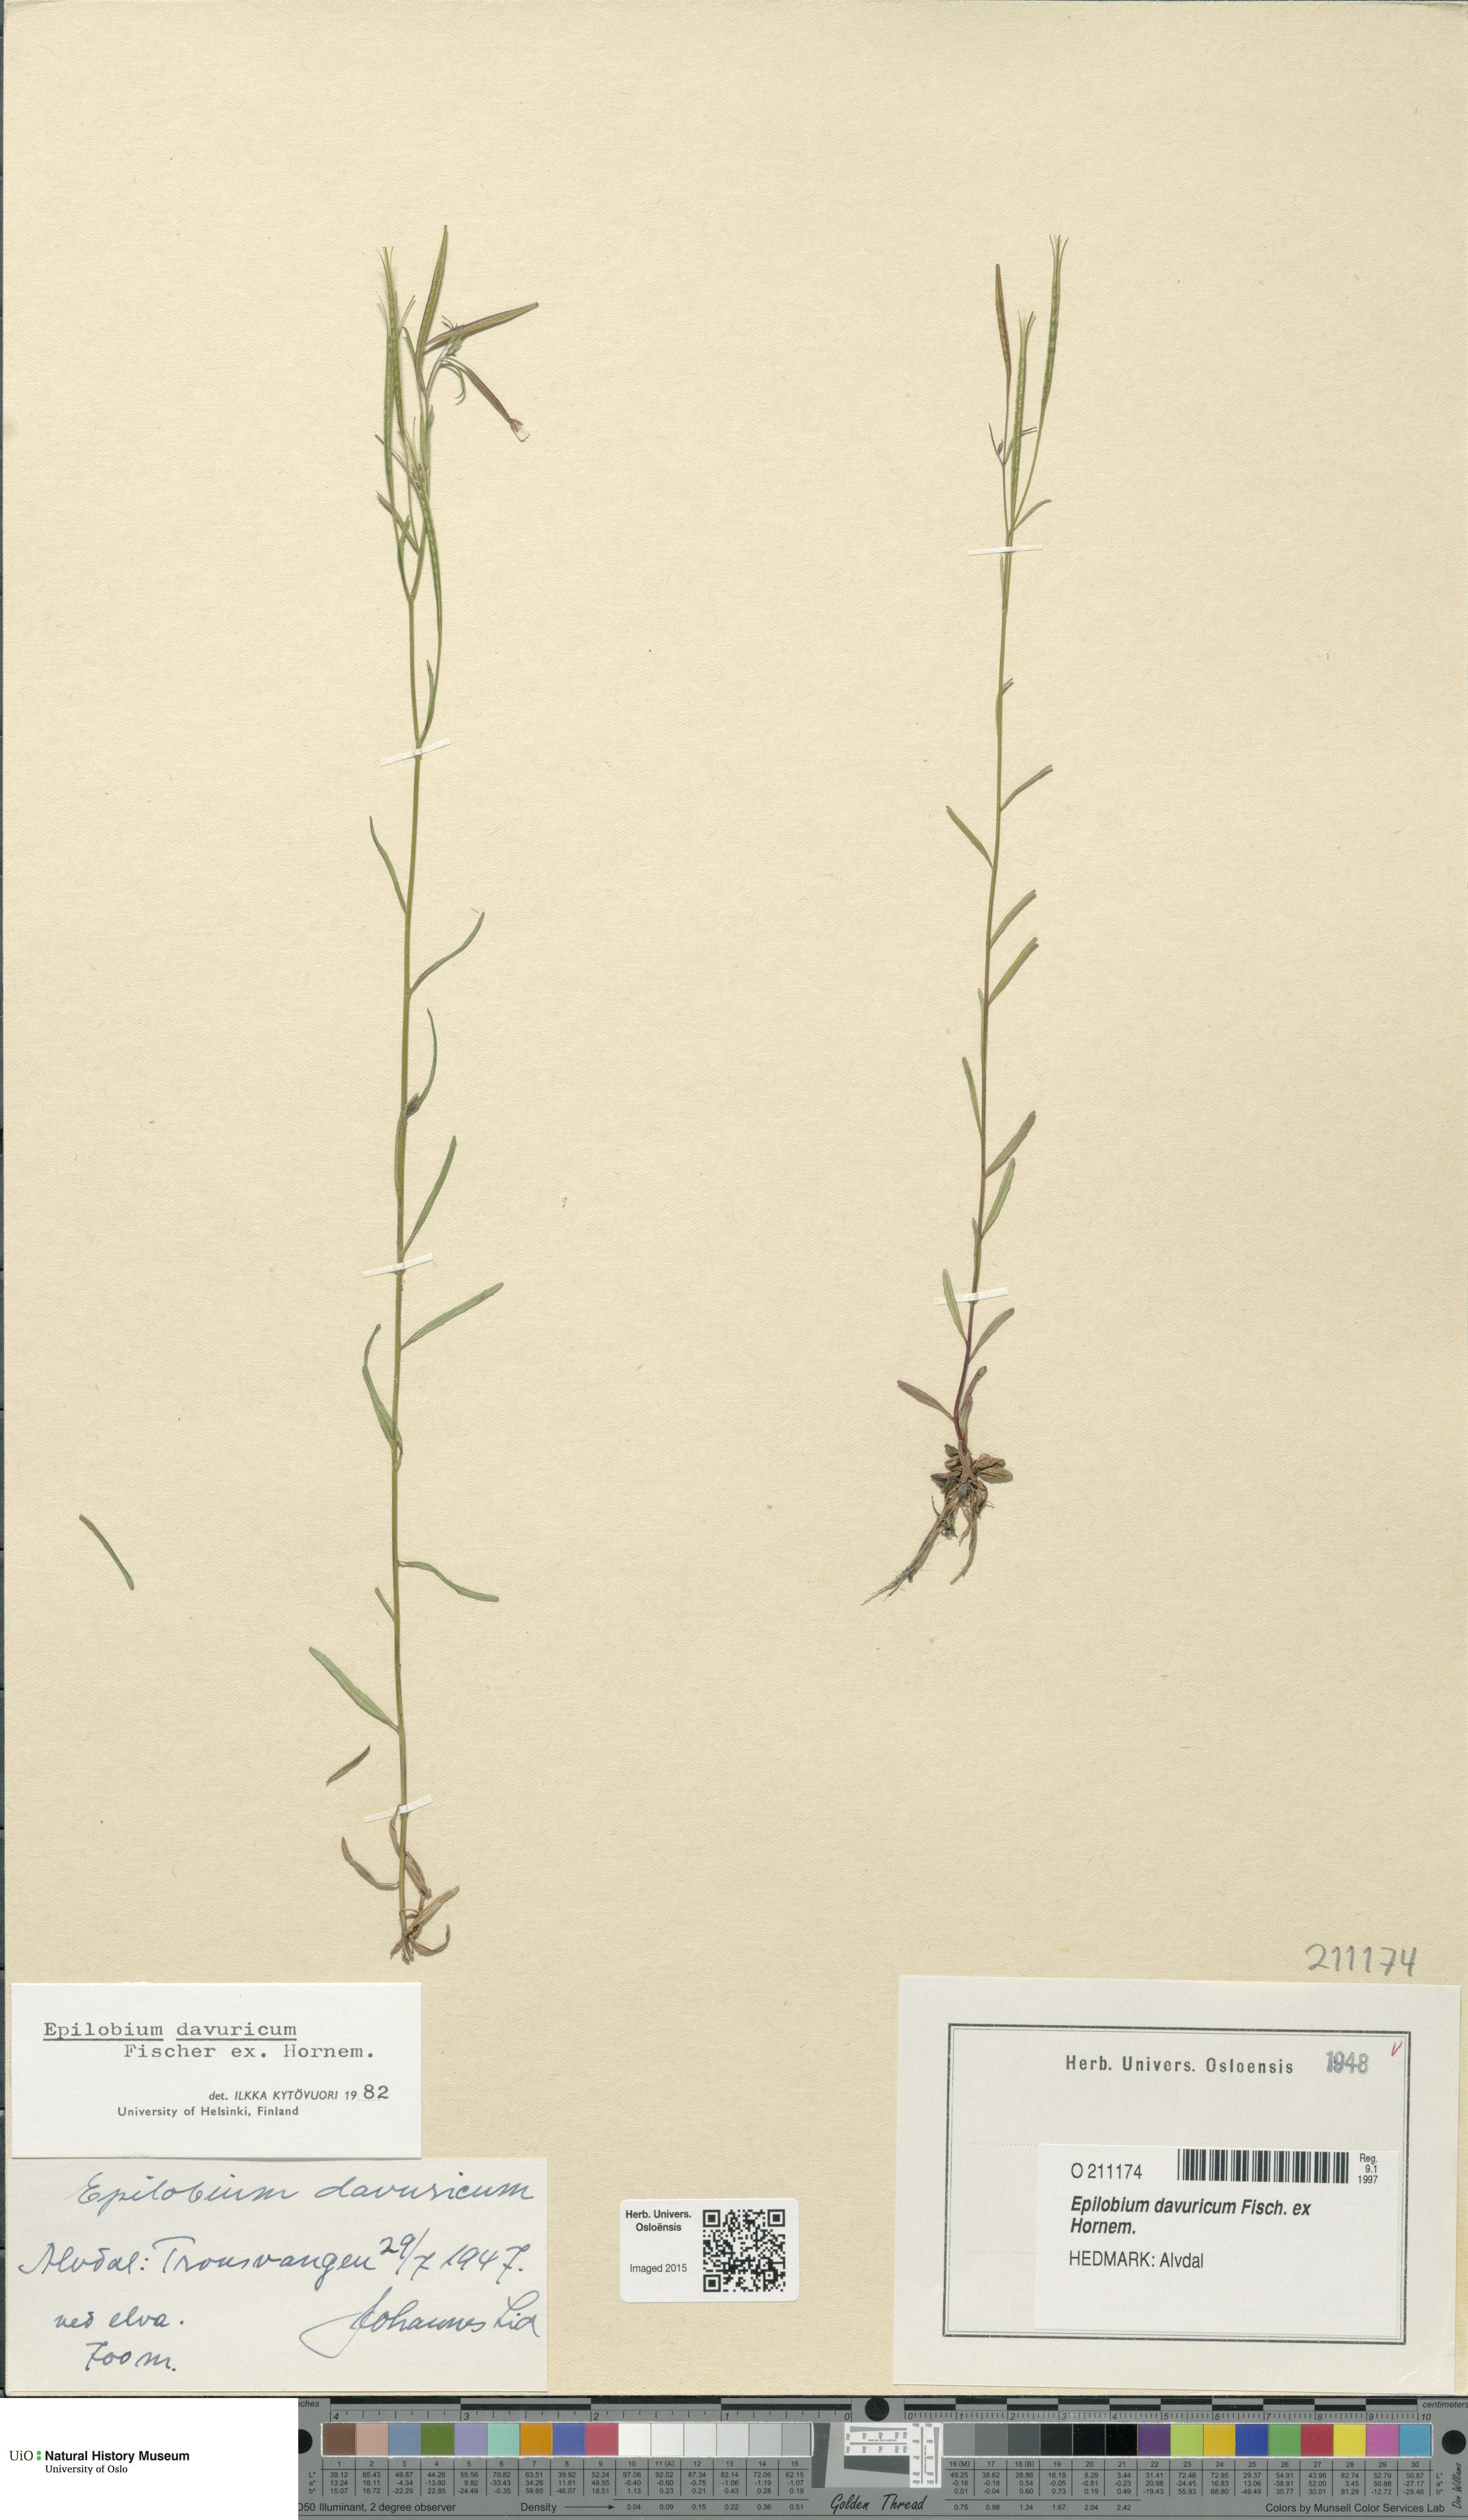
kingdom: Plantae
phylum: Tracheophyta
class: Magnoliopsida
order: Myrtales
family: Onagraceae
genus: Epilobium
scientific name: Epilobium davuricum
